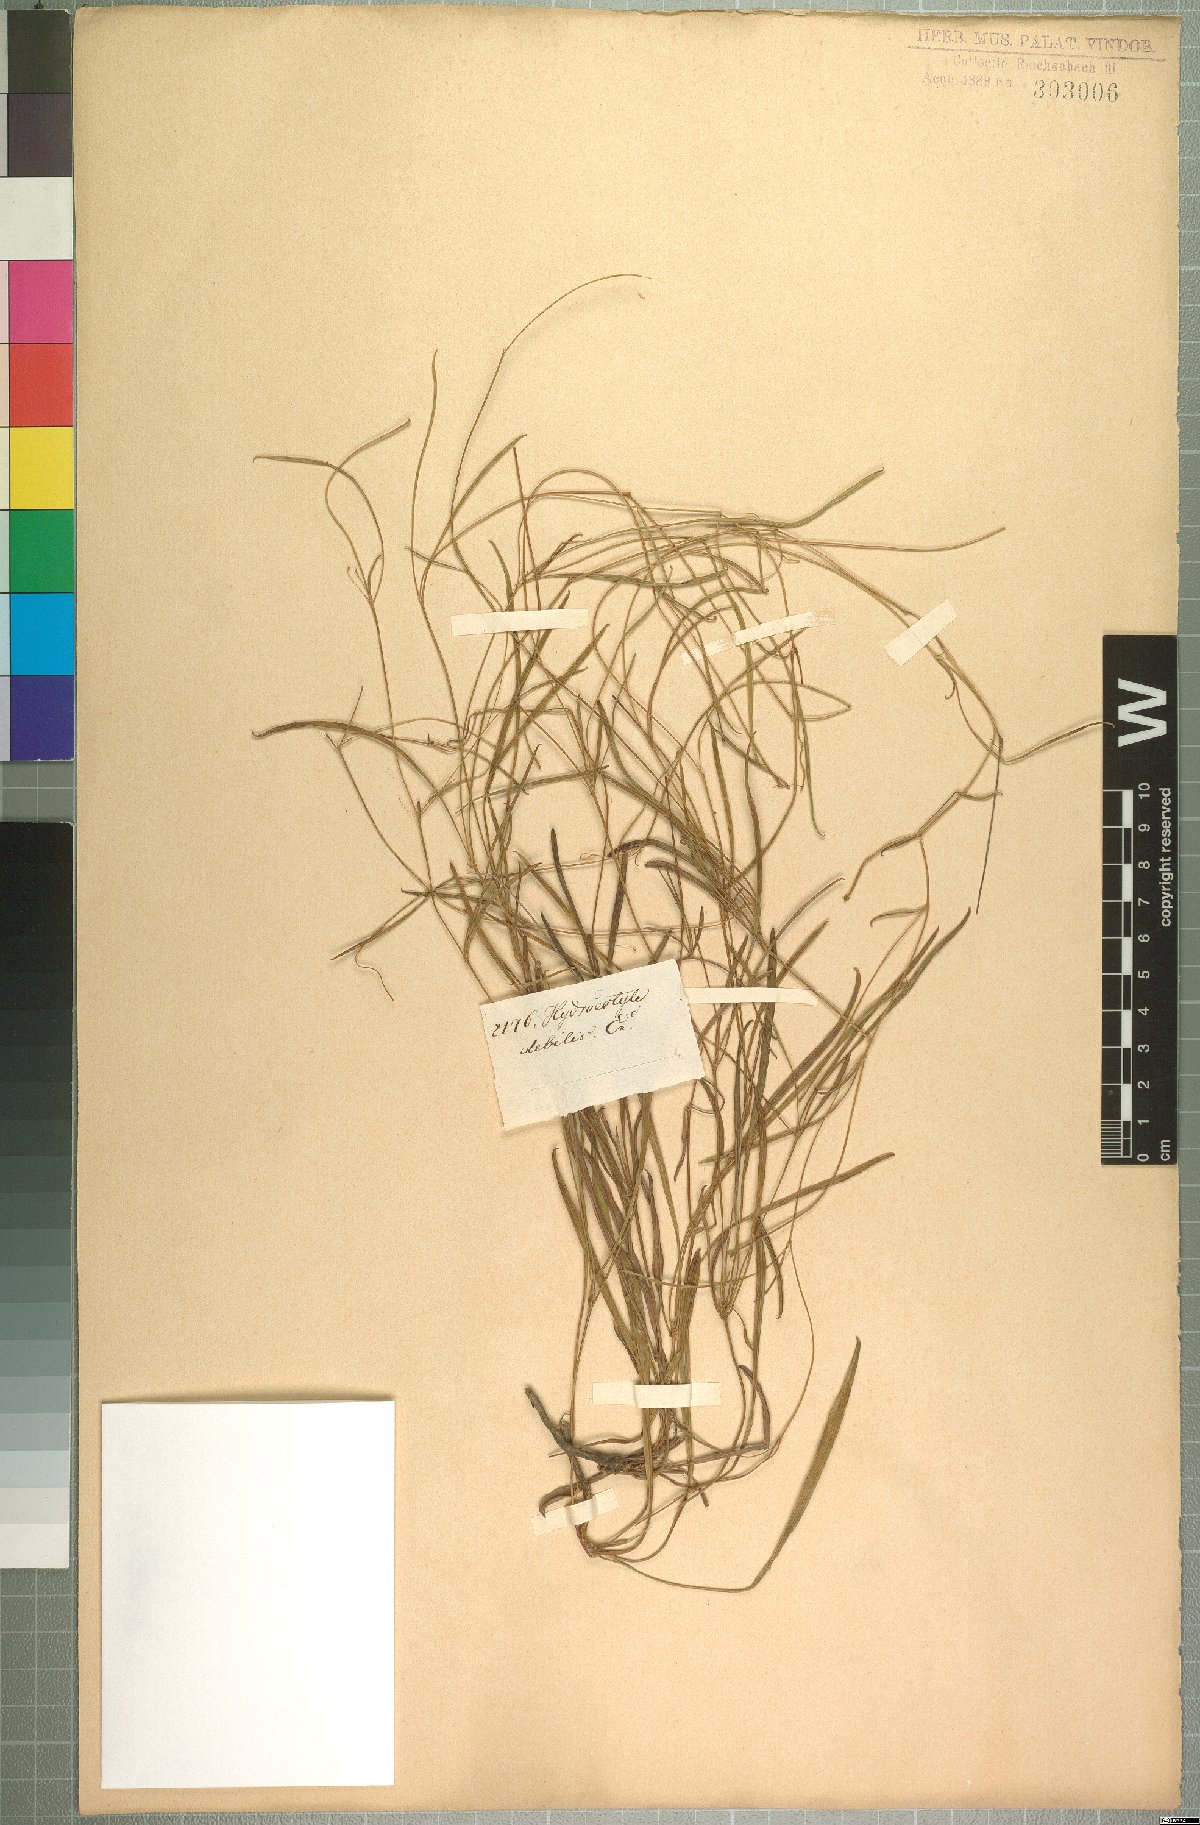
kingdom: Plantae
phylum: Tracheophyta
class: Magnoliopsida
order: Apiales
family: Apiaceae
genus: Centella
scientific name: Centella debilis
